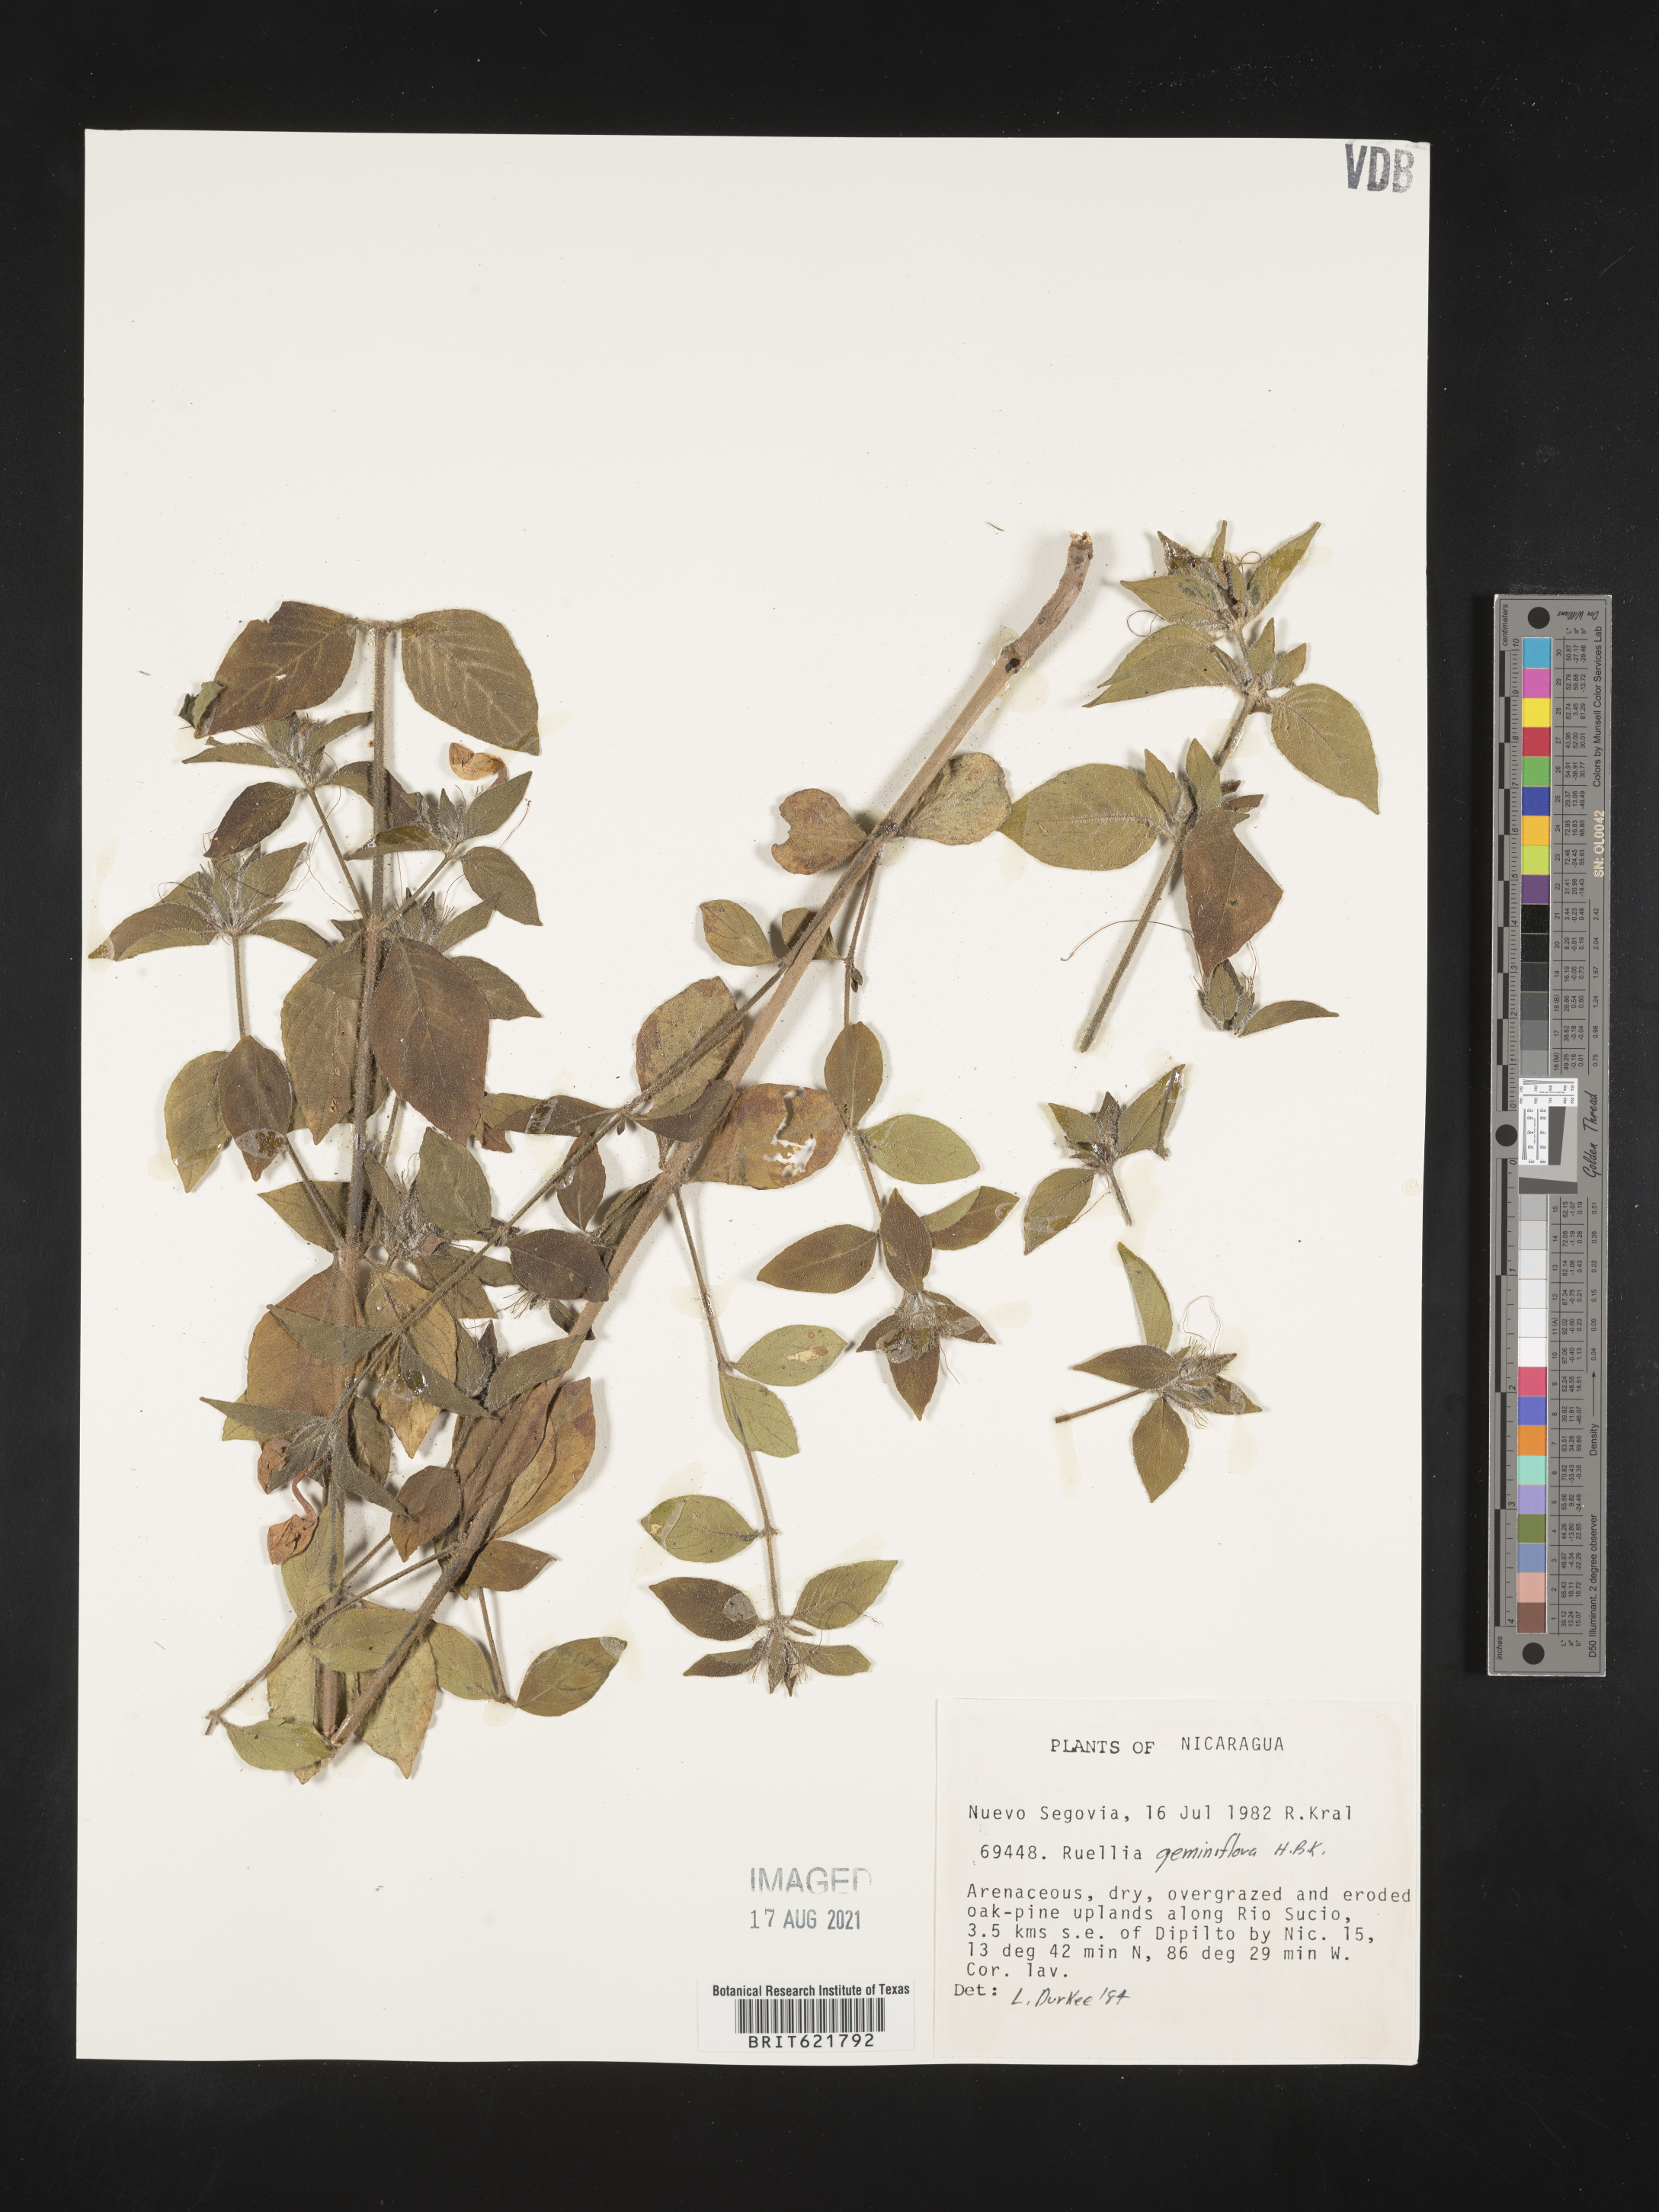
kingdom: Plantae
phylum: Tracheophyta
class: Magnoliopsida
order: Lamiales
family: Acanthaceae
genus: Ruellia
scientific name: Ruellia geminiflora
